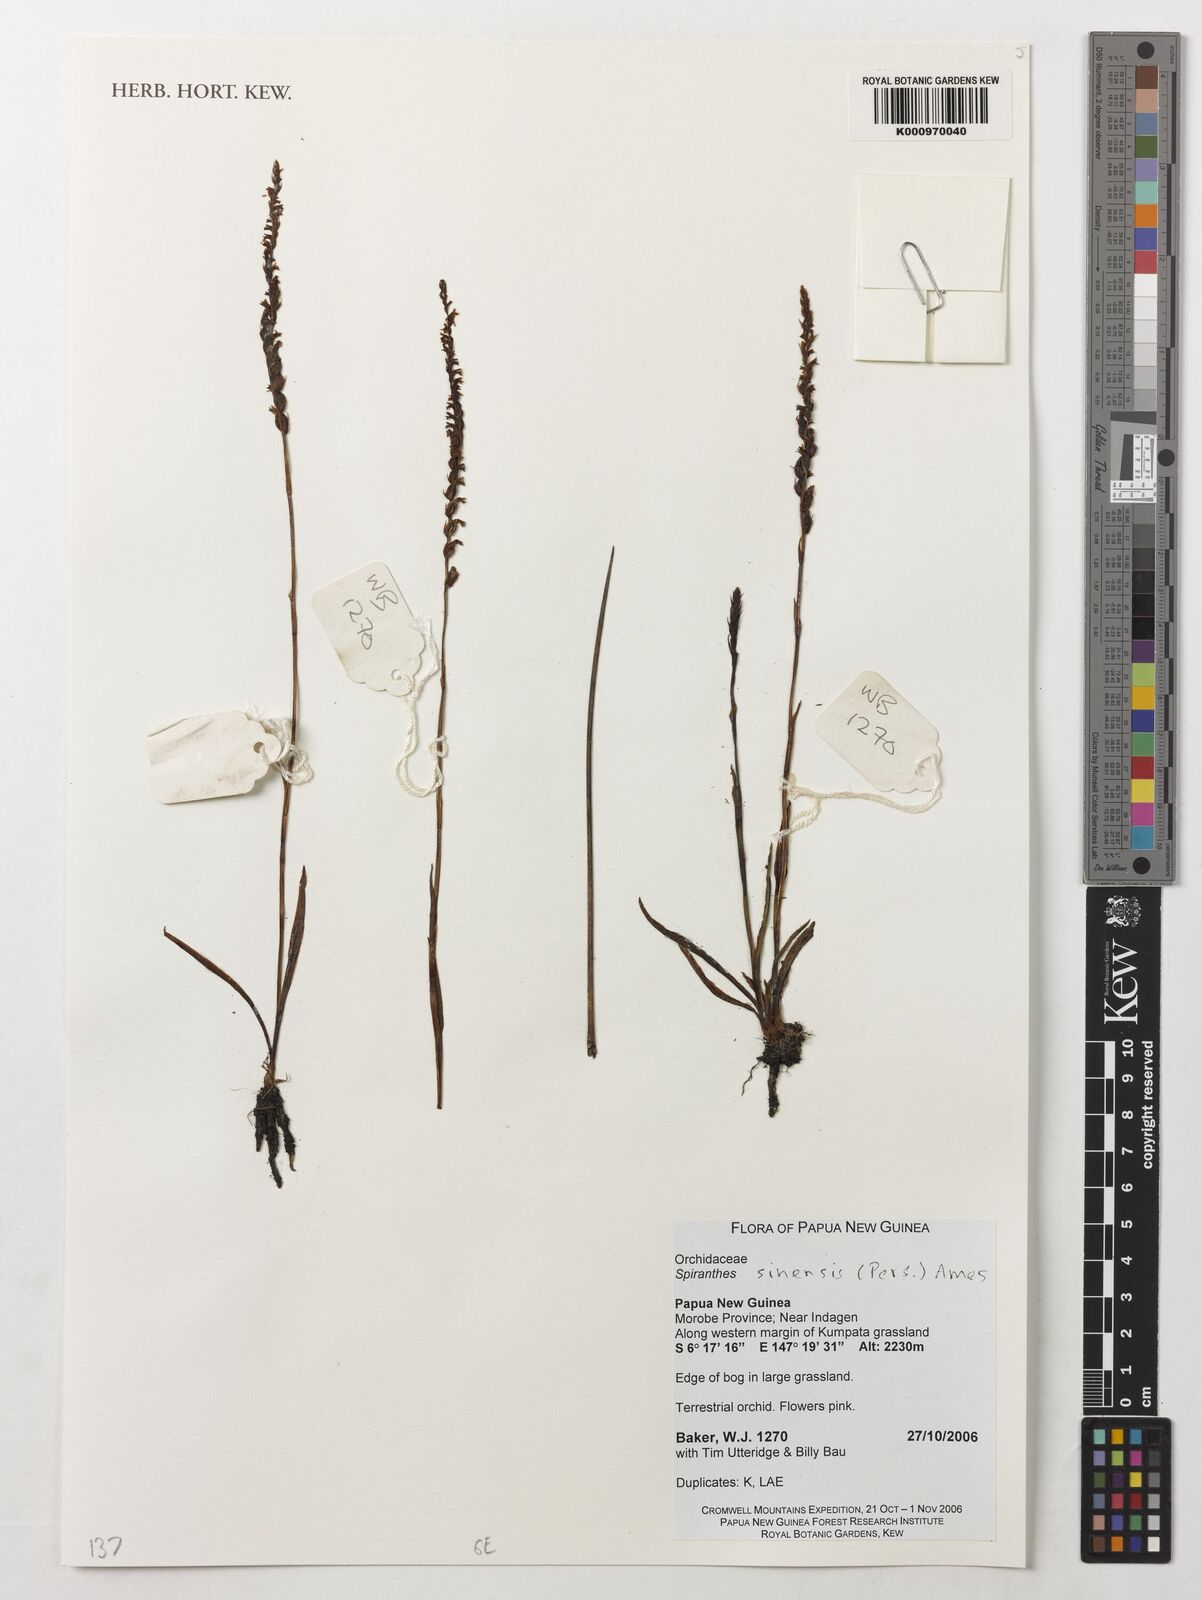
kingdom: Plantae
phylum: Tracheophyta
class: Liliopsida
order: Asparagales
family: Orchidaceae
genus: Spiranthes
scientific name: Spiranthes sinensis
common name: Chinese spiranthes
